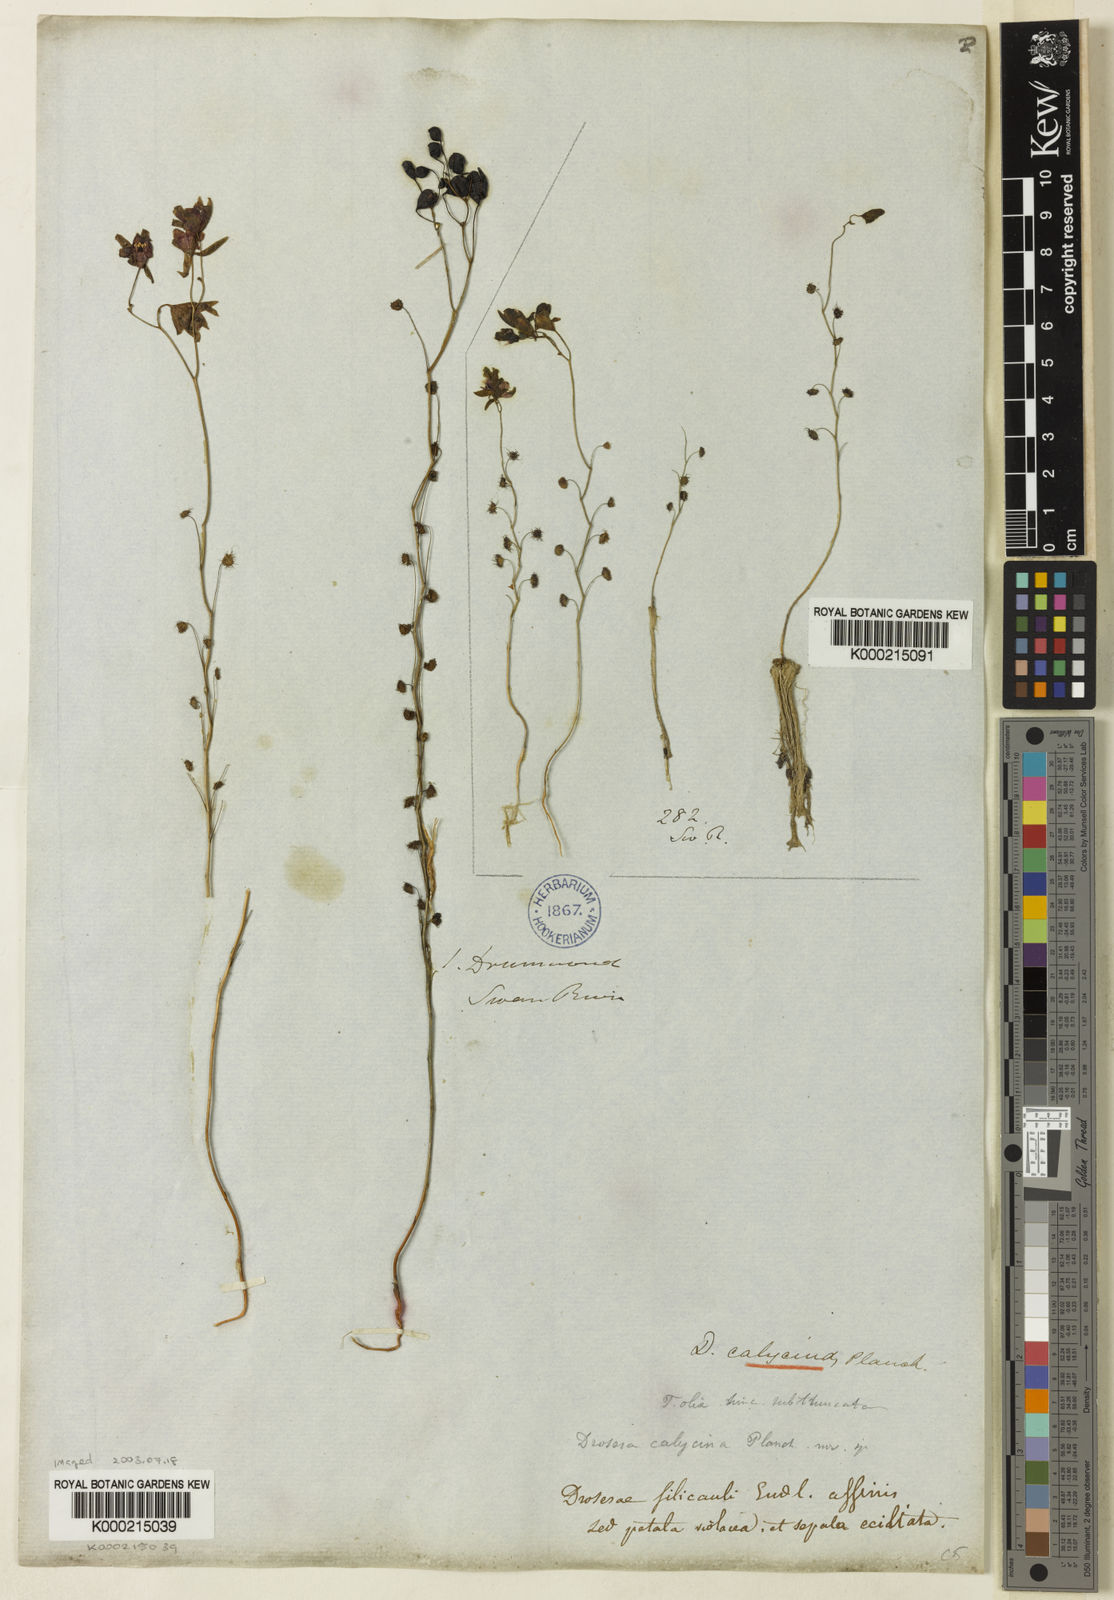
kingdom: Plantae
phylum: Tracheophyta
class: Magnoliopsida
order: Caryophyllales
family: Droseraceae
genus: Drosera
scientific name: Drosera microphylla
